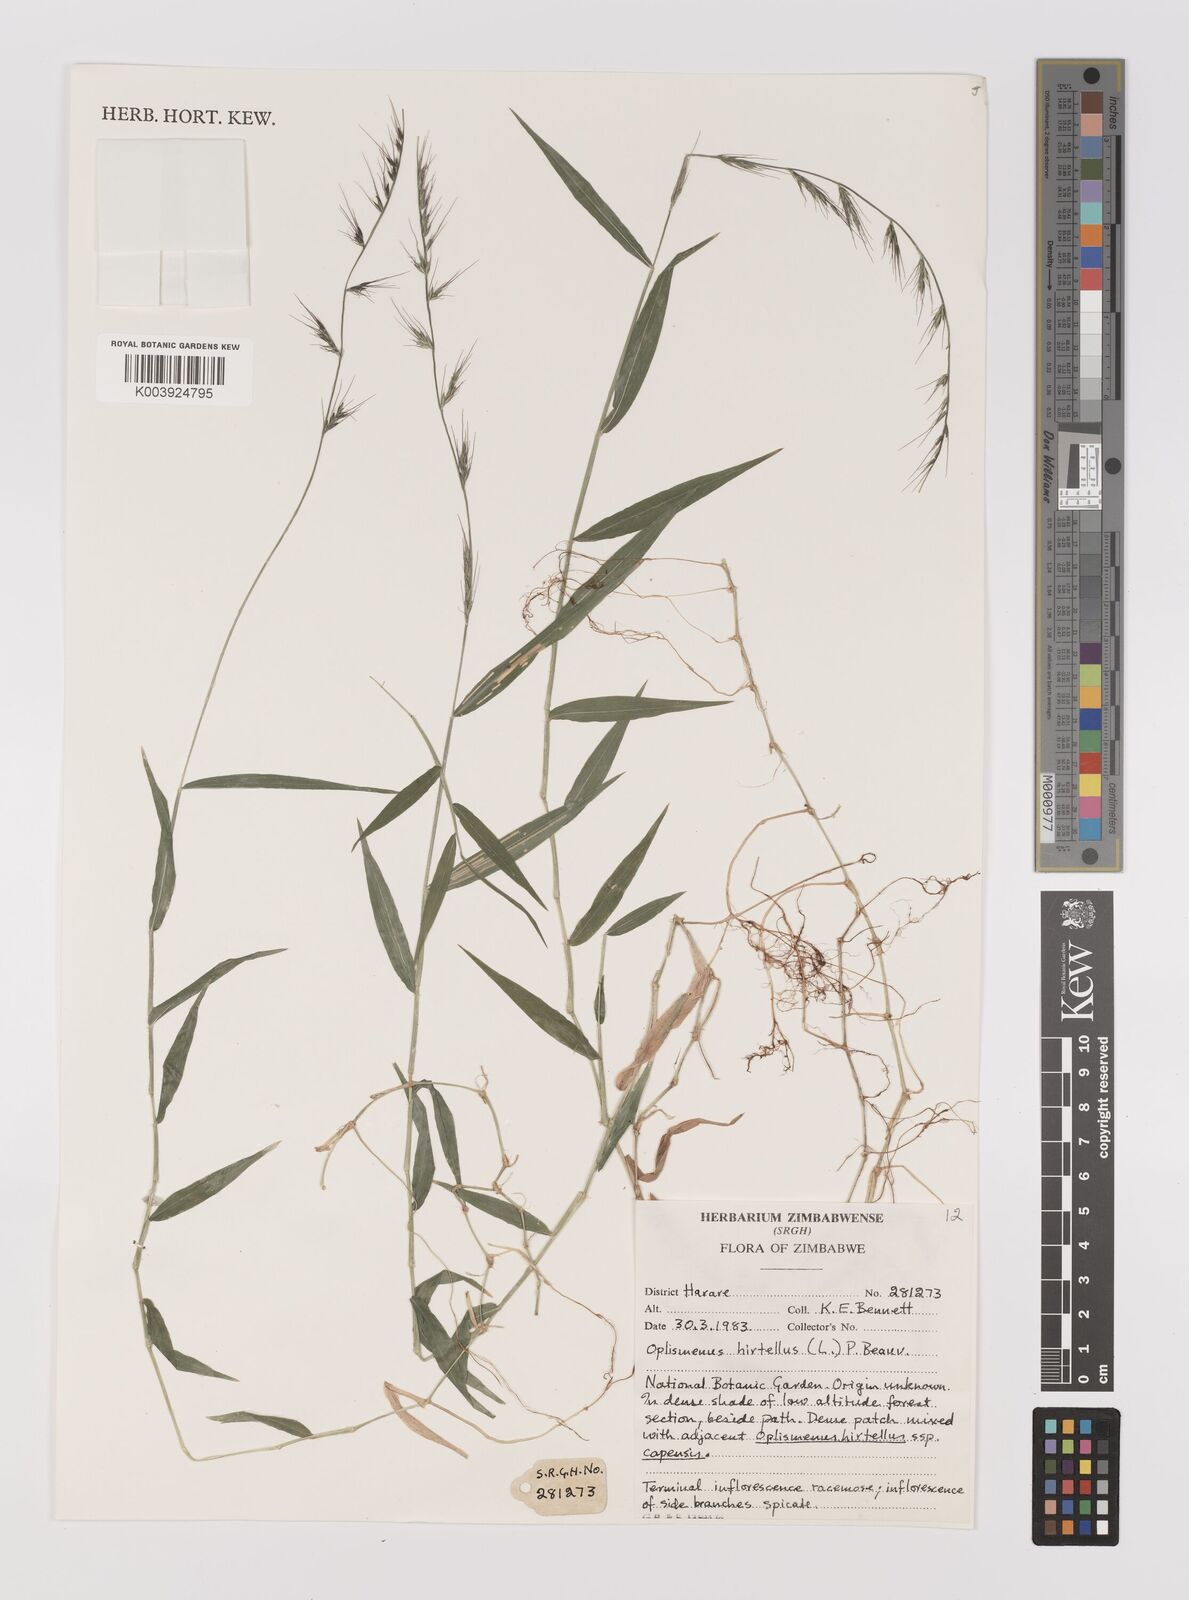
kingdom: Plantae
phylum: Tracheophyta
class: Liliopsida
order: Poales
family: Poaceae
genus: Oplismenus
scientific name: Oplismenus hirtellus
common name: Basketgrass
